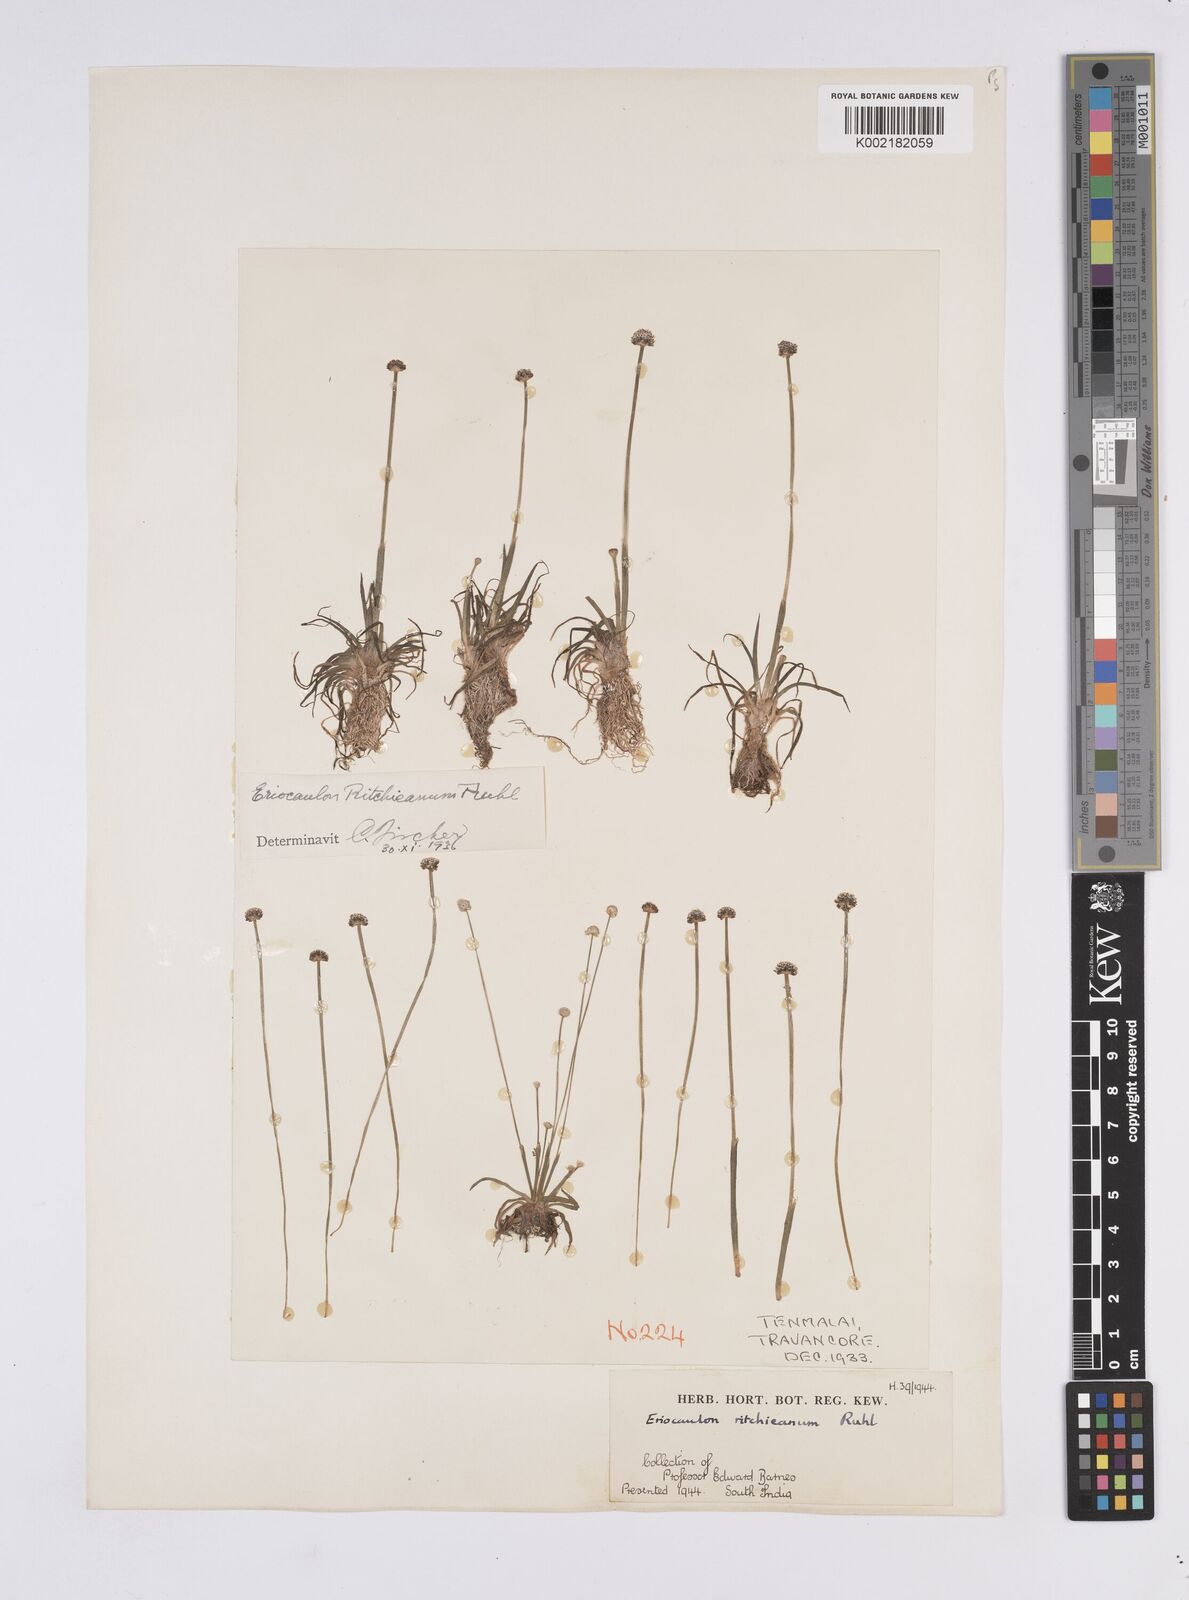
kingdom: Plantae
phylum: Tracheophyta
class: Liliopsida
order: Poales
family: Eriocaulaceae
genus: Eriocaulon
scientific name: Eriocaulon ritchieanum
